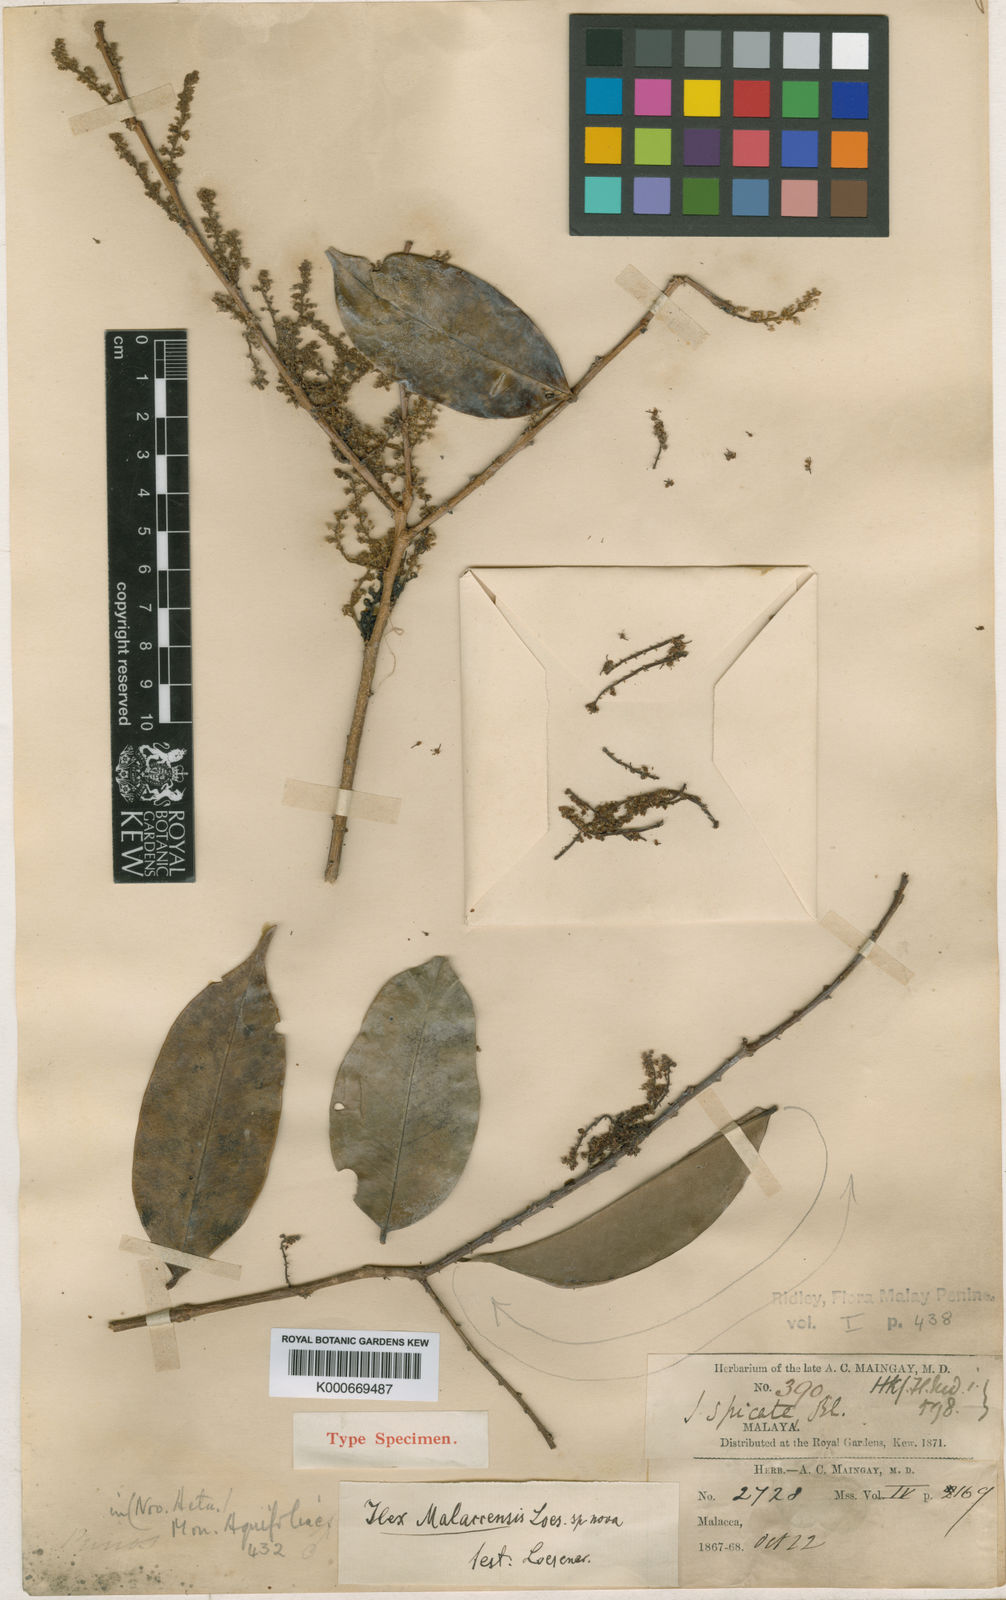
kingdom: Plantae
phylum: Tracheophyta
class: Magnoliopsida
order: Aquifoliales
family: Aquifoliaceae
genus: Ilex
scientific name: Ilex malaccensis
